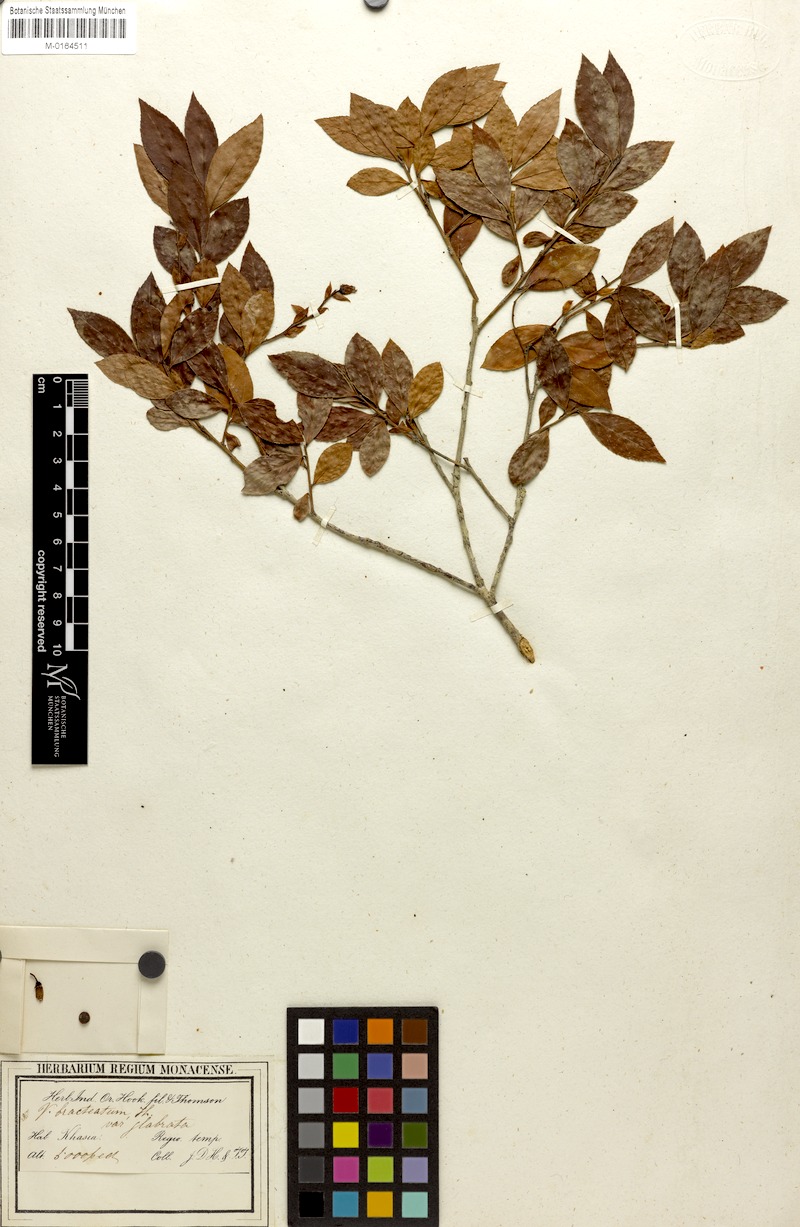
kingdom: Plantae
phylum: Tracheophyta
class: Magnoliopsida
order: Ericales
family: Ericaceae
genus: Vaccinium
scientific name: Vaccinium sprengelii
